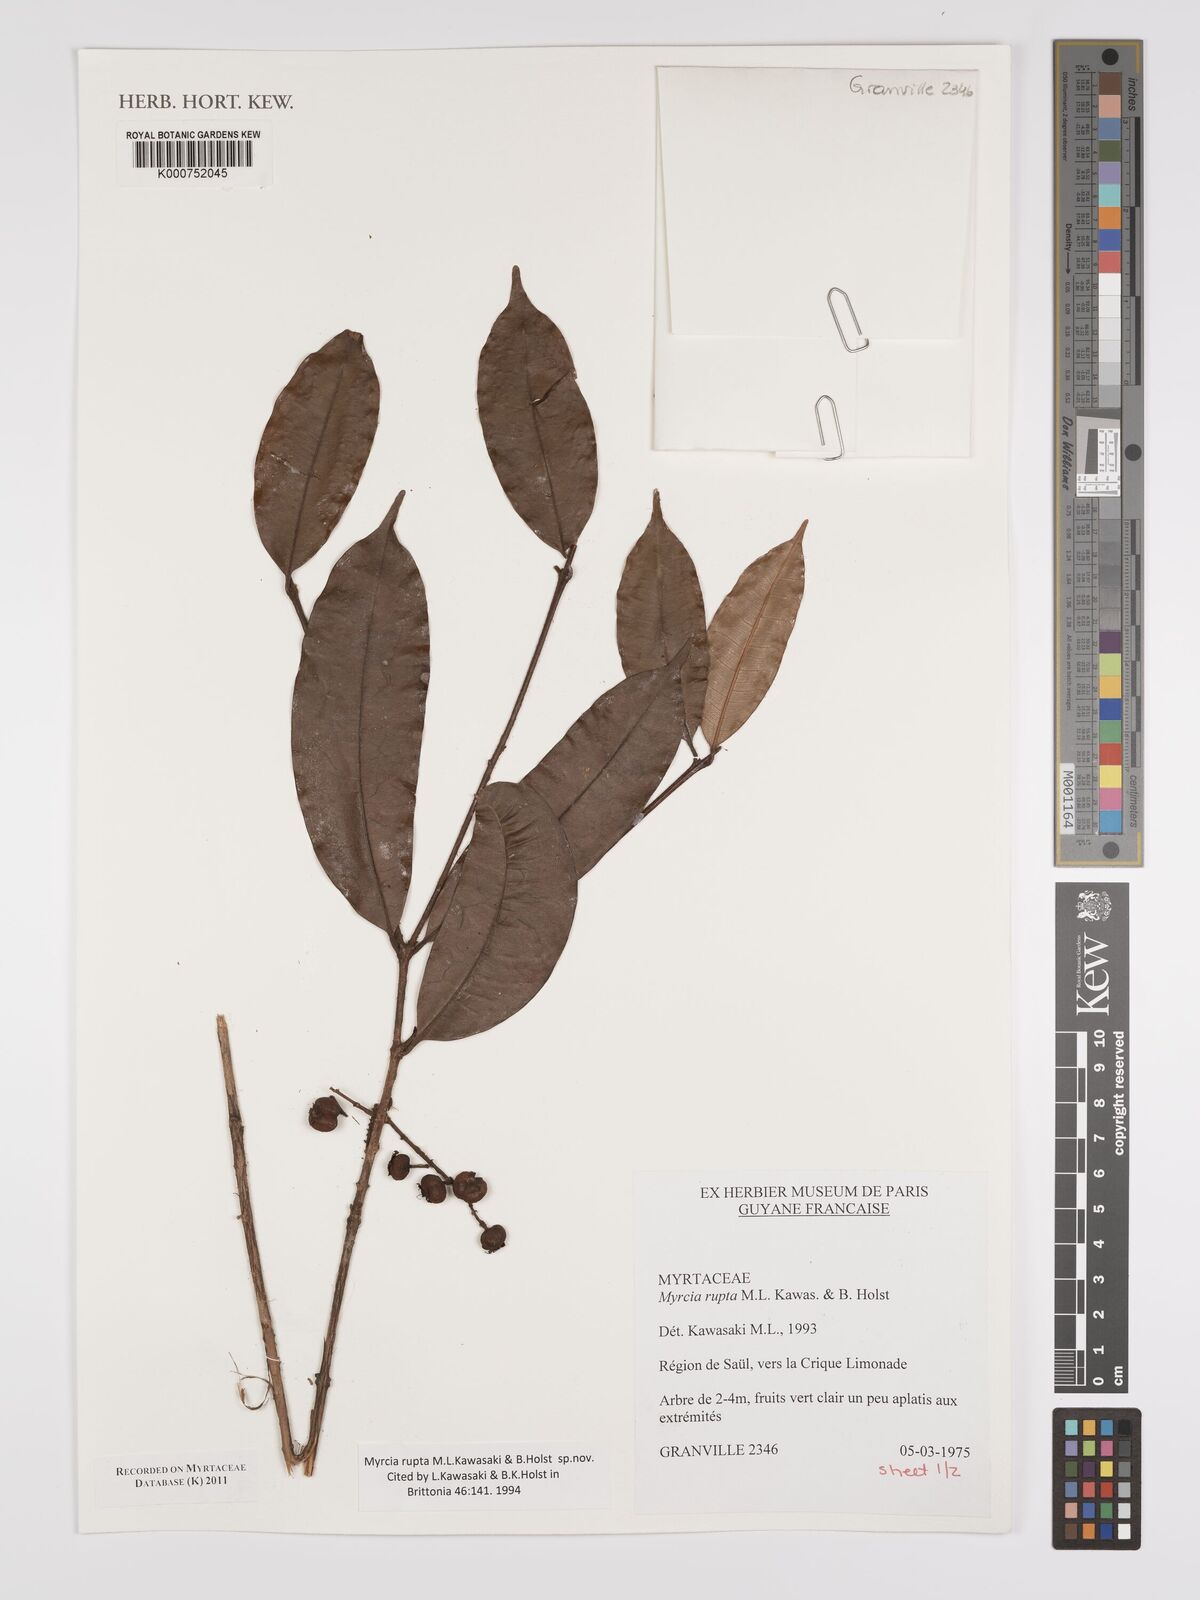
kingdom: Plantae
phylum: Tracheophyta
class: Magnoliopsida
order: Myrtales
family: Myrtaceae
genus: Myrcia
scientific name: Myrcia rupta
